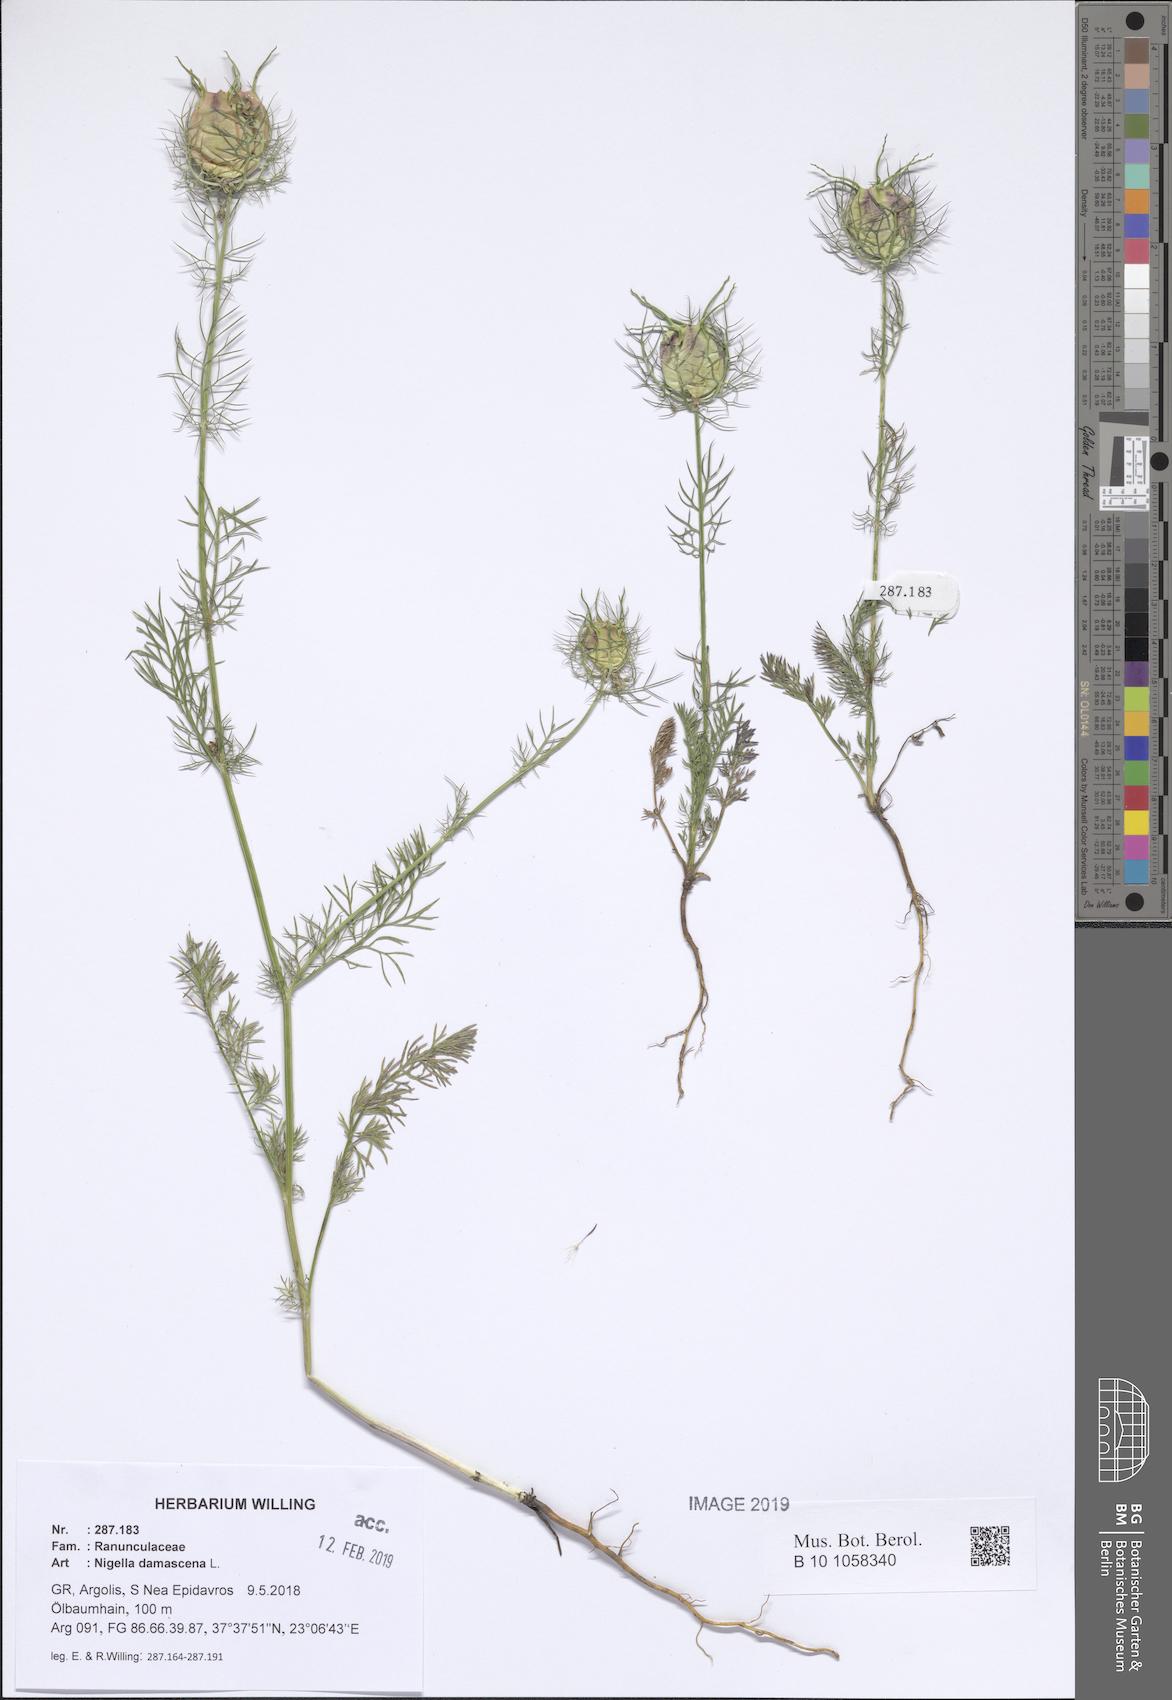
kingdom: Plantae
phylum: Tracheophyta
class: Magnoliopsida
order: Ranunculales
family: Ranunculaceae
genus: Nigella
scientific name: Nigella damascena
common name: Love-in-a-mist
